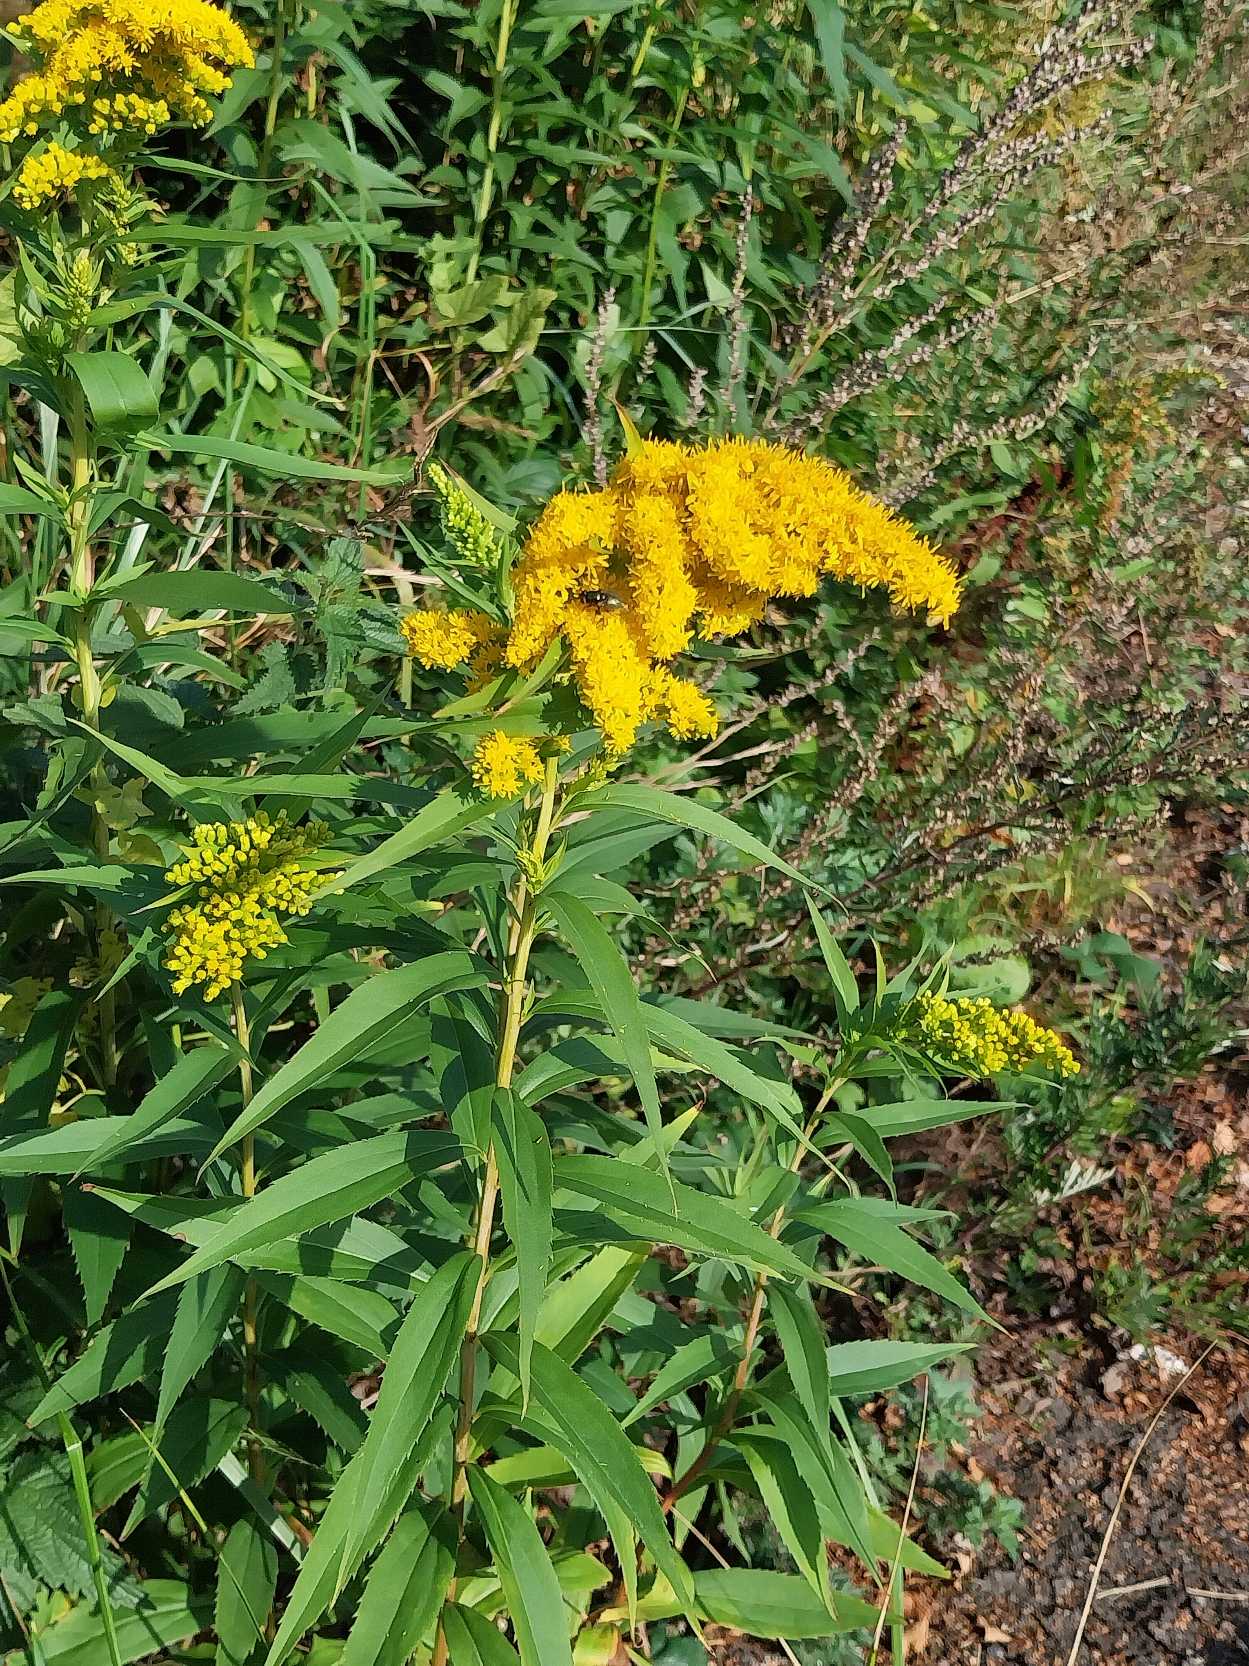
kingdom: Plantae
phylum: Tracheophyta
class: Magnoliopsida
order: Asterales
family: Asteraceae
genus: Solidago
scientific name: Solidago gigantea
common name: Sildig gyldenris
